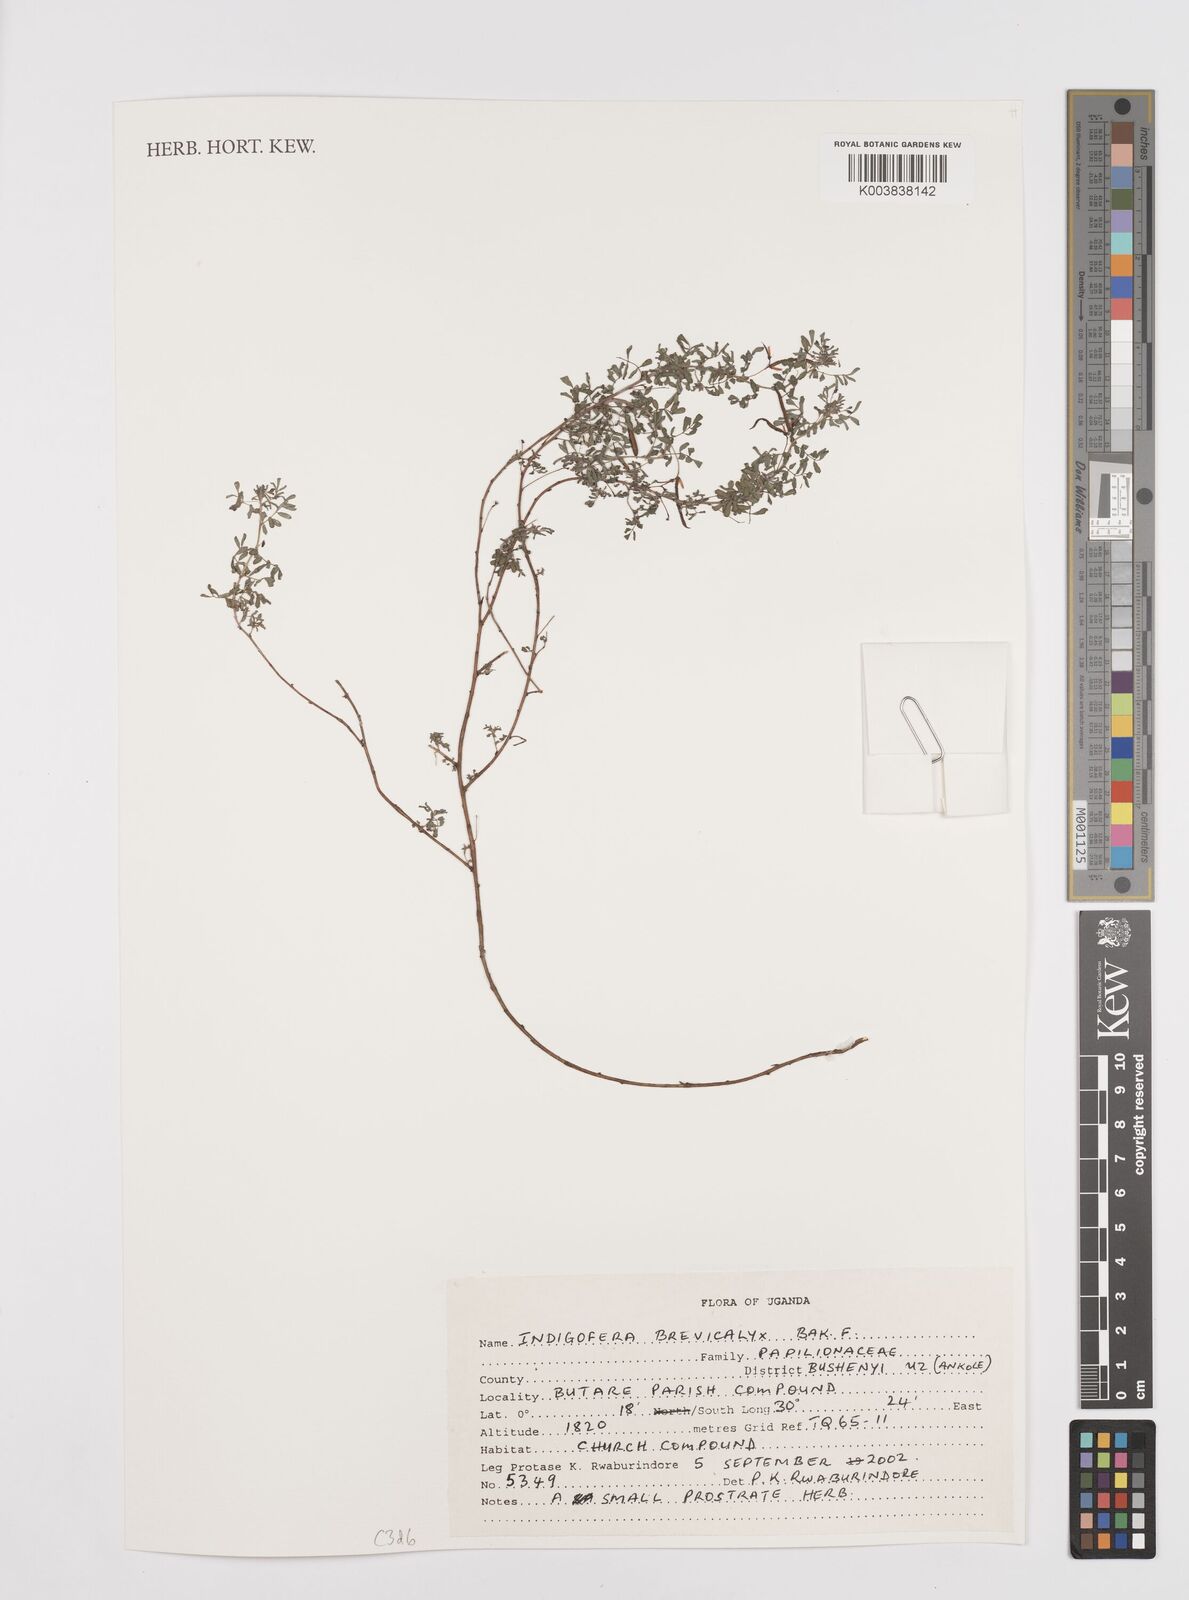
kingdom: Plantae
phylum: Tracheophyta
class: Magnoliopsida
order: Fabales
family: Fabaceae
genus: Indigofera
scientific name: Indigofera brevicalyx
